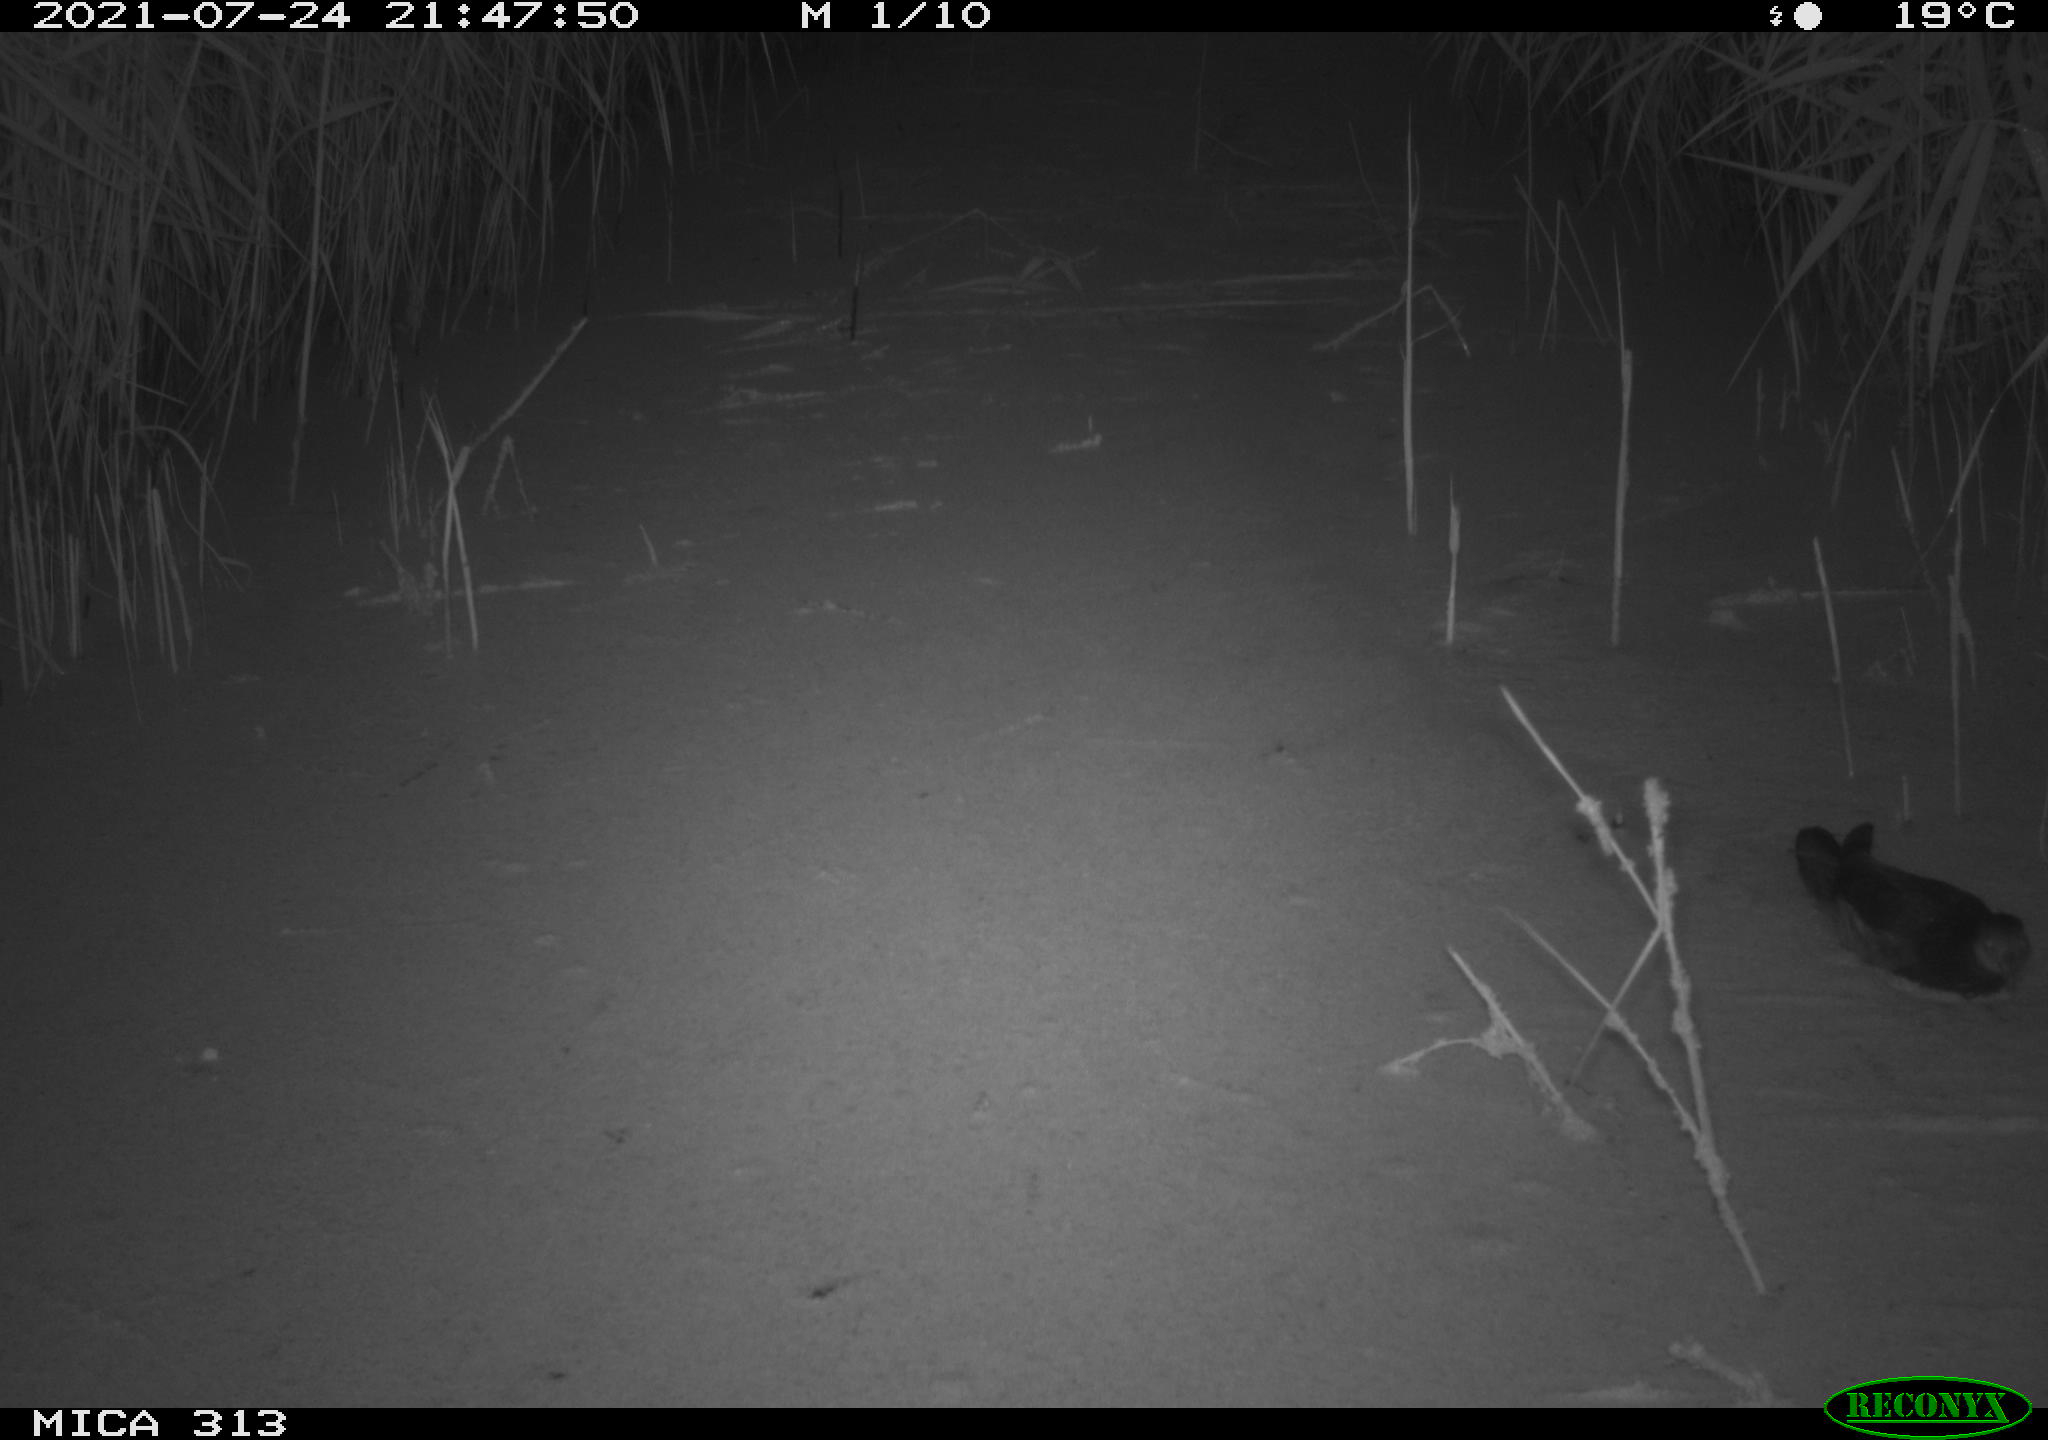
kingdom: Animalia
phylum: Chordata
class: Aves
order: Gruiformes
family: Rallidae
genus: Gallinula
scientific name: Gallinula chloropus
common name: Common moorhen
